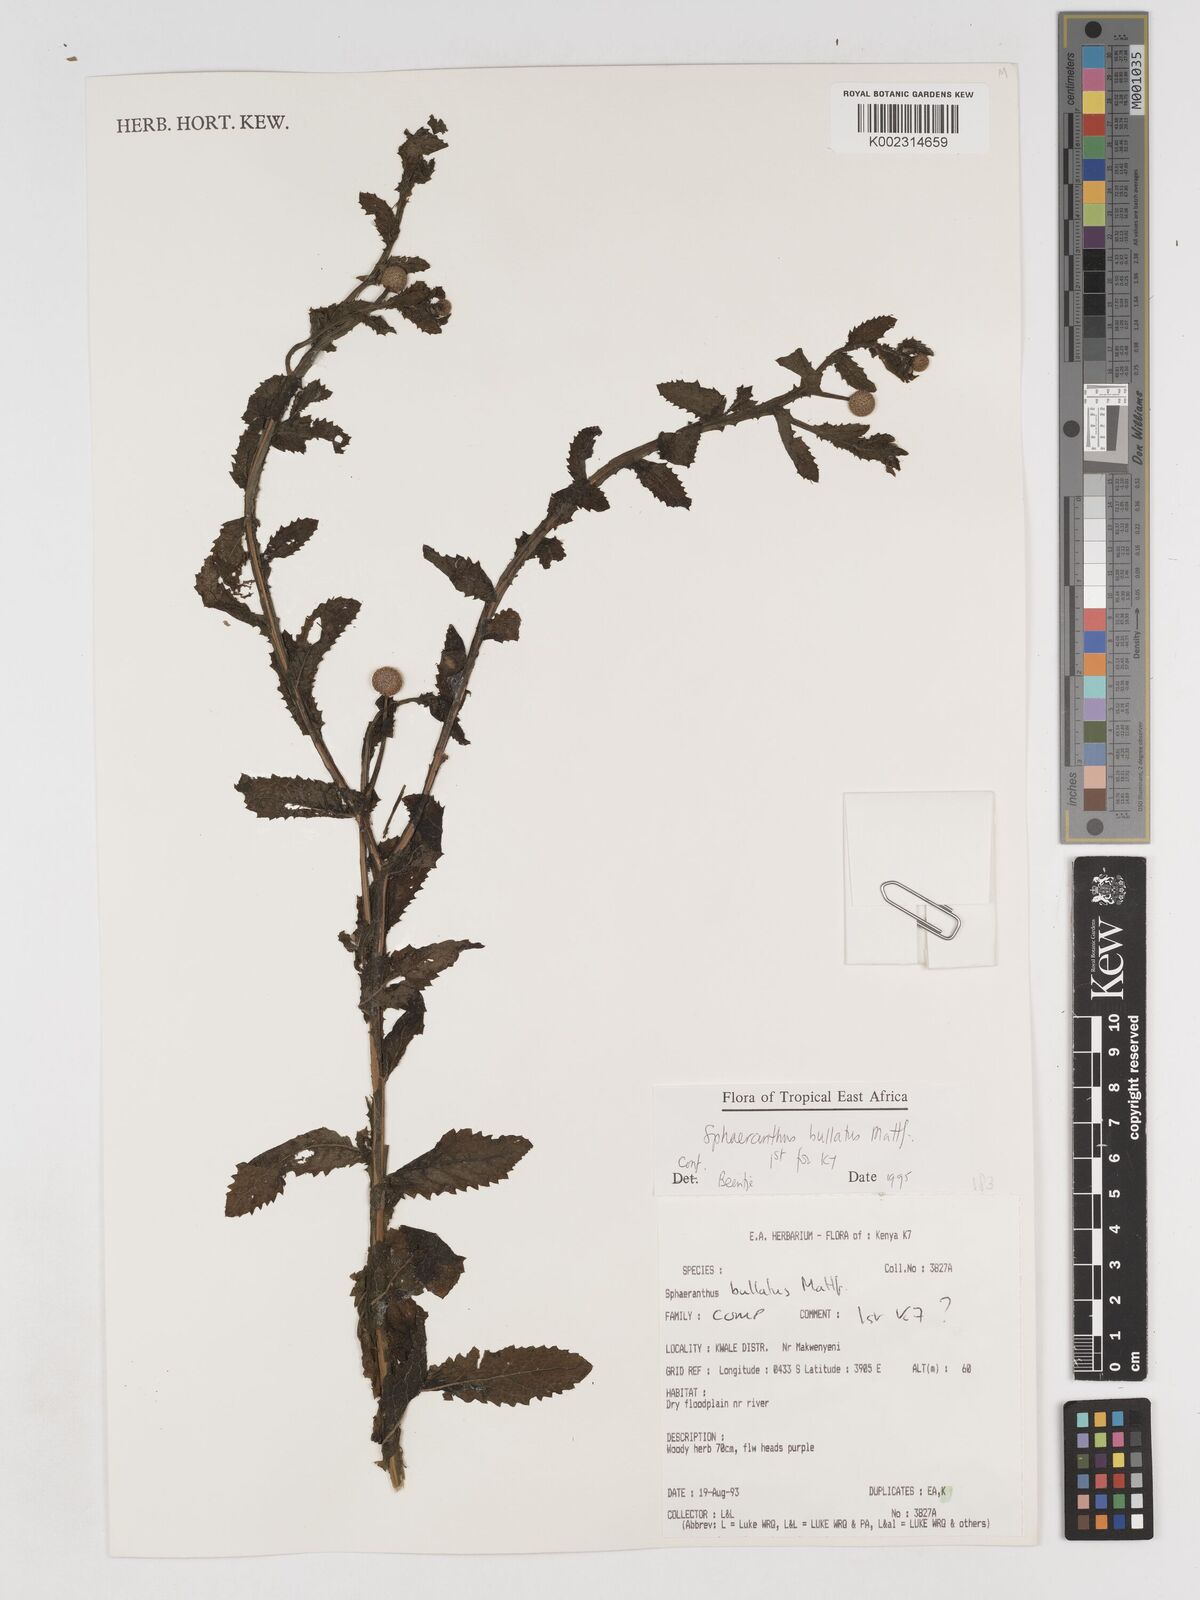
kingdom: Plantae
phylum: Tracheophyta
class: Magnoliopsida
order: Asterales
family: Asteraceae
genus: Sphaeranthus
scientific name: Sphaeranthus bullatus
